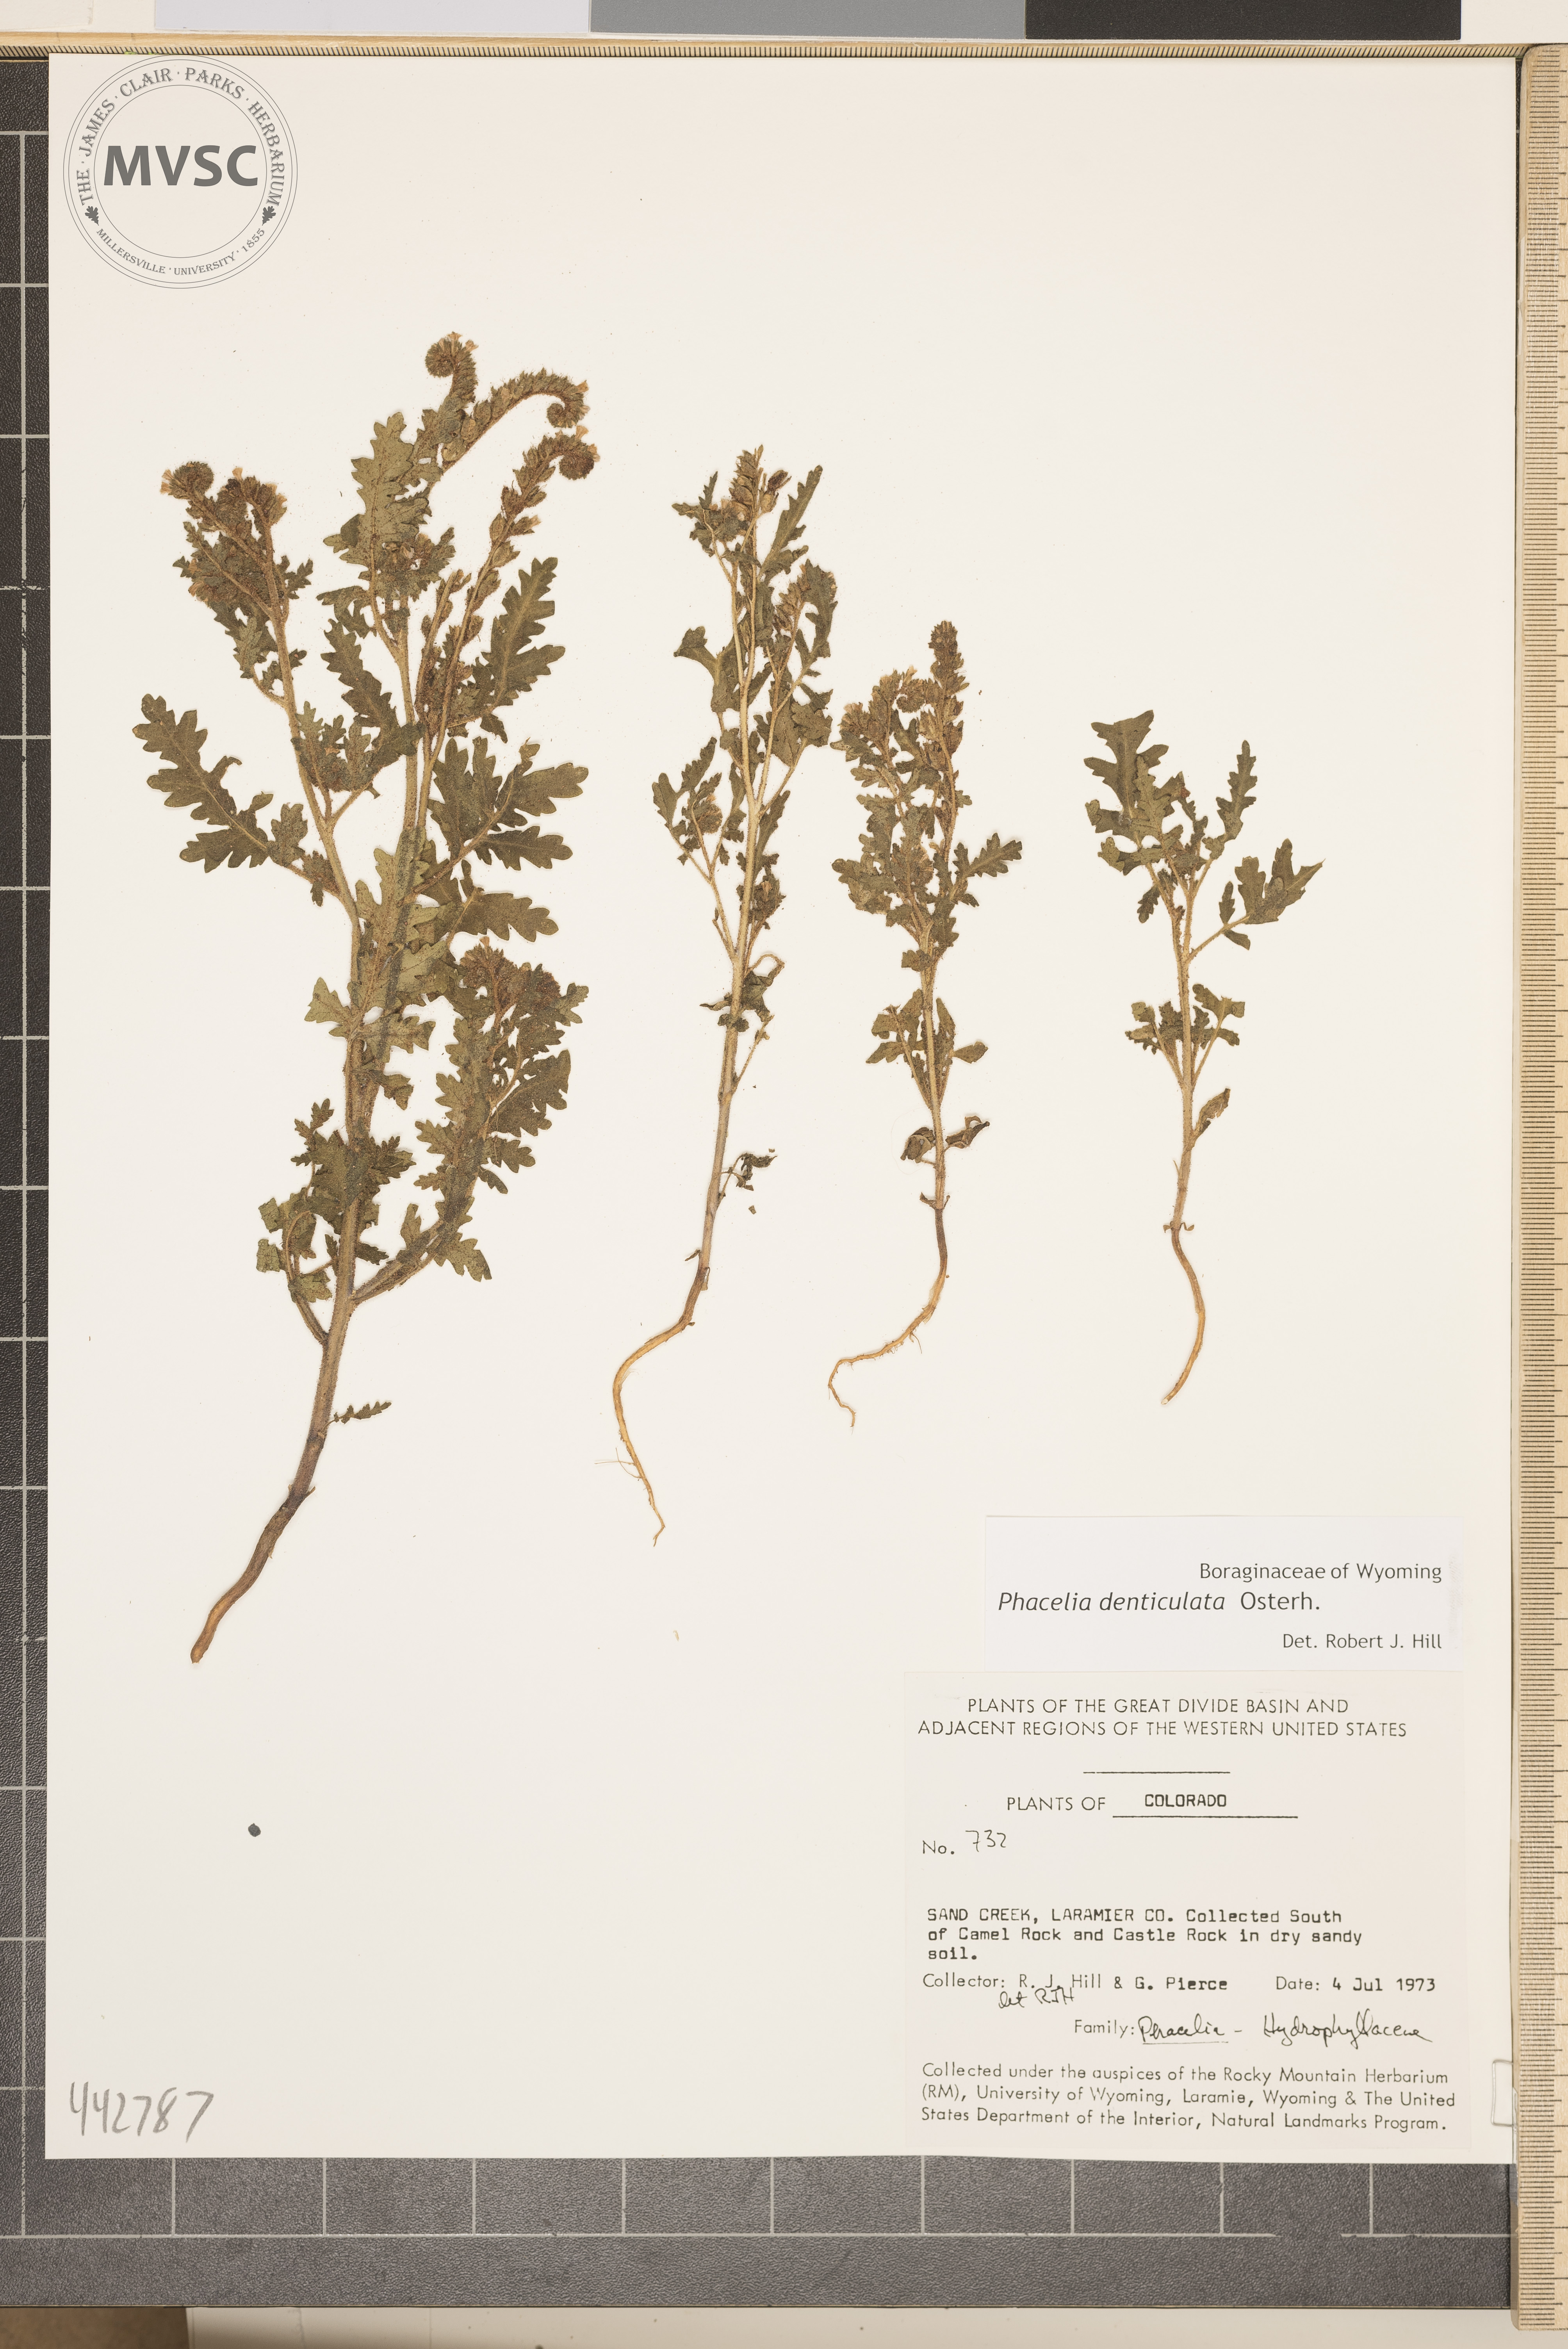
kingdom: Plantae
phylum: Tracheophyta
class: Magnoliopsida
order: Boraginales
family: Hydrophyllaceae
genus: Phacelia
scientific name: Phacelia denticulata
